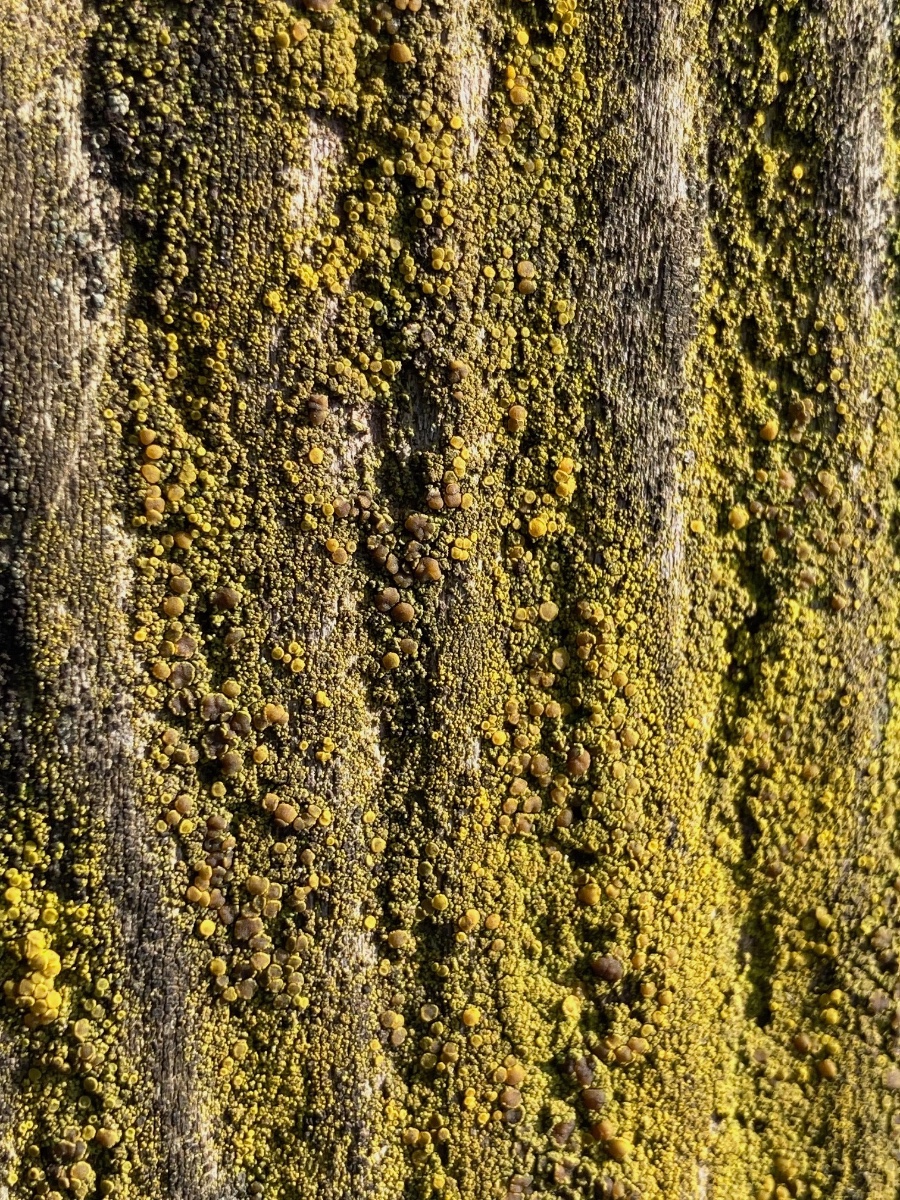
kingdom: Fungi
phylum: Ascomycota
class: Candelariomycetes
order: Candelariales
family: Candelariaceae
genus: Candelariella
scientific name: Candelariella vitellina
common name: almindelig æggeblommelav
